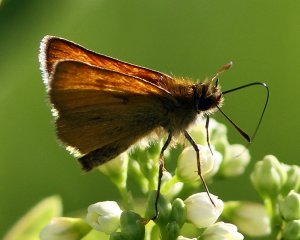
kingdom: Animalia
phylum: Arthropoda
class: Insecta
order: Lepidoptera
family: Hesperiidae
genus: Thymelicus
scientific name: Thymelicus lineola
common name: European Skipper
